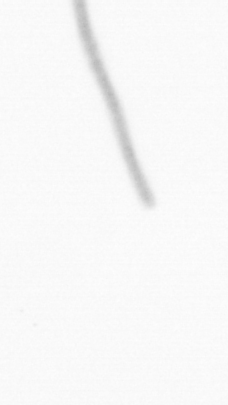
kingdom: Chromista
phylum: Ochrophyta
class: Bacillariophyceae
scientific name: Bacillariophyceae
